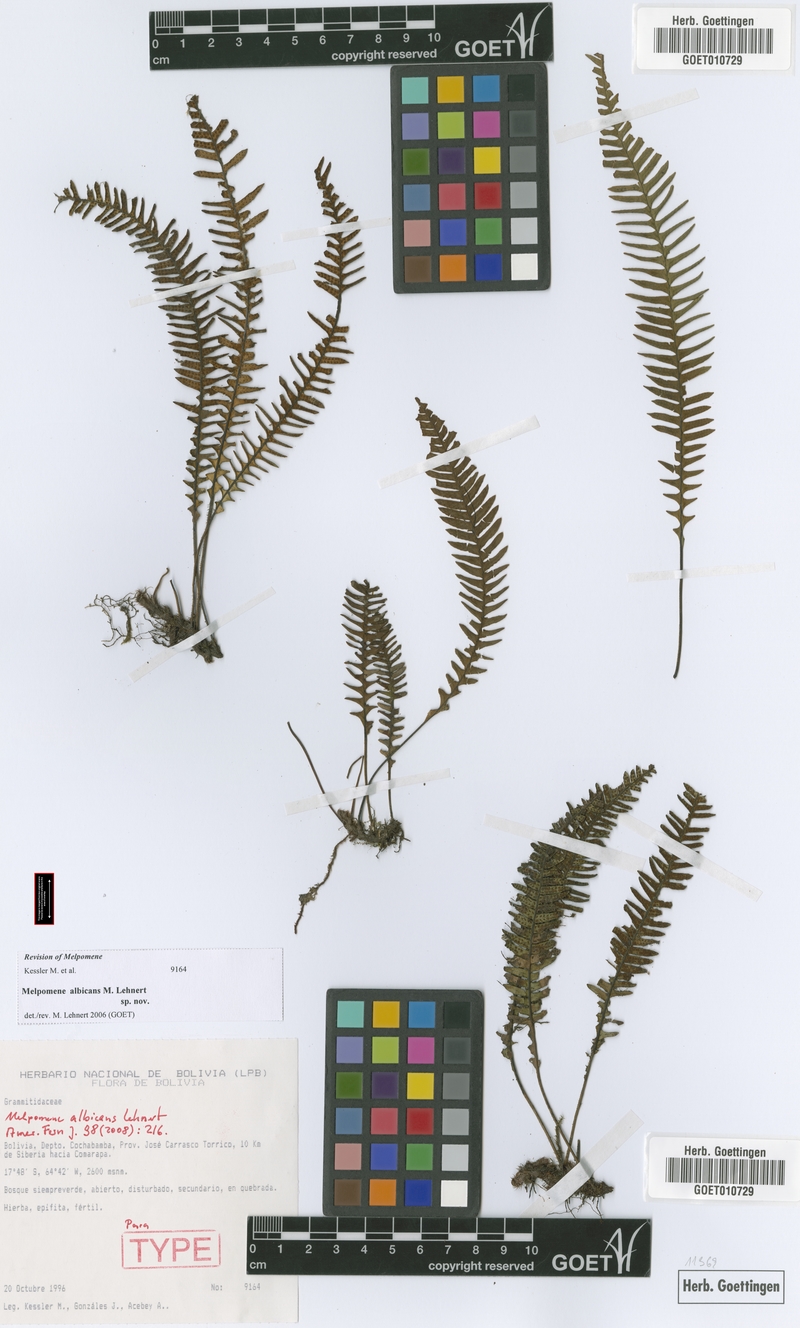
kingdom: Plantae
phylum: Tracheophyta
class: Polypodiopsida
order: Polypodiales
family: Polypodiaceae
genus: Melpomene
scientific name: Melpomene albicans
